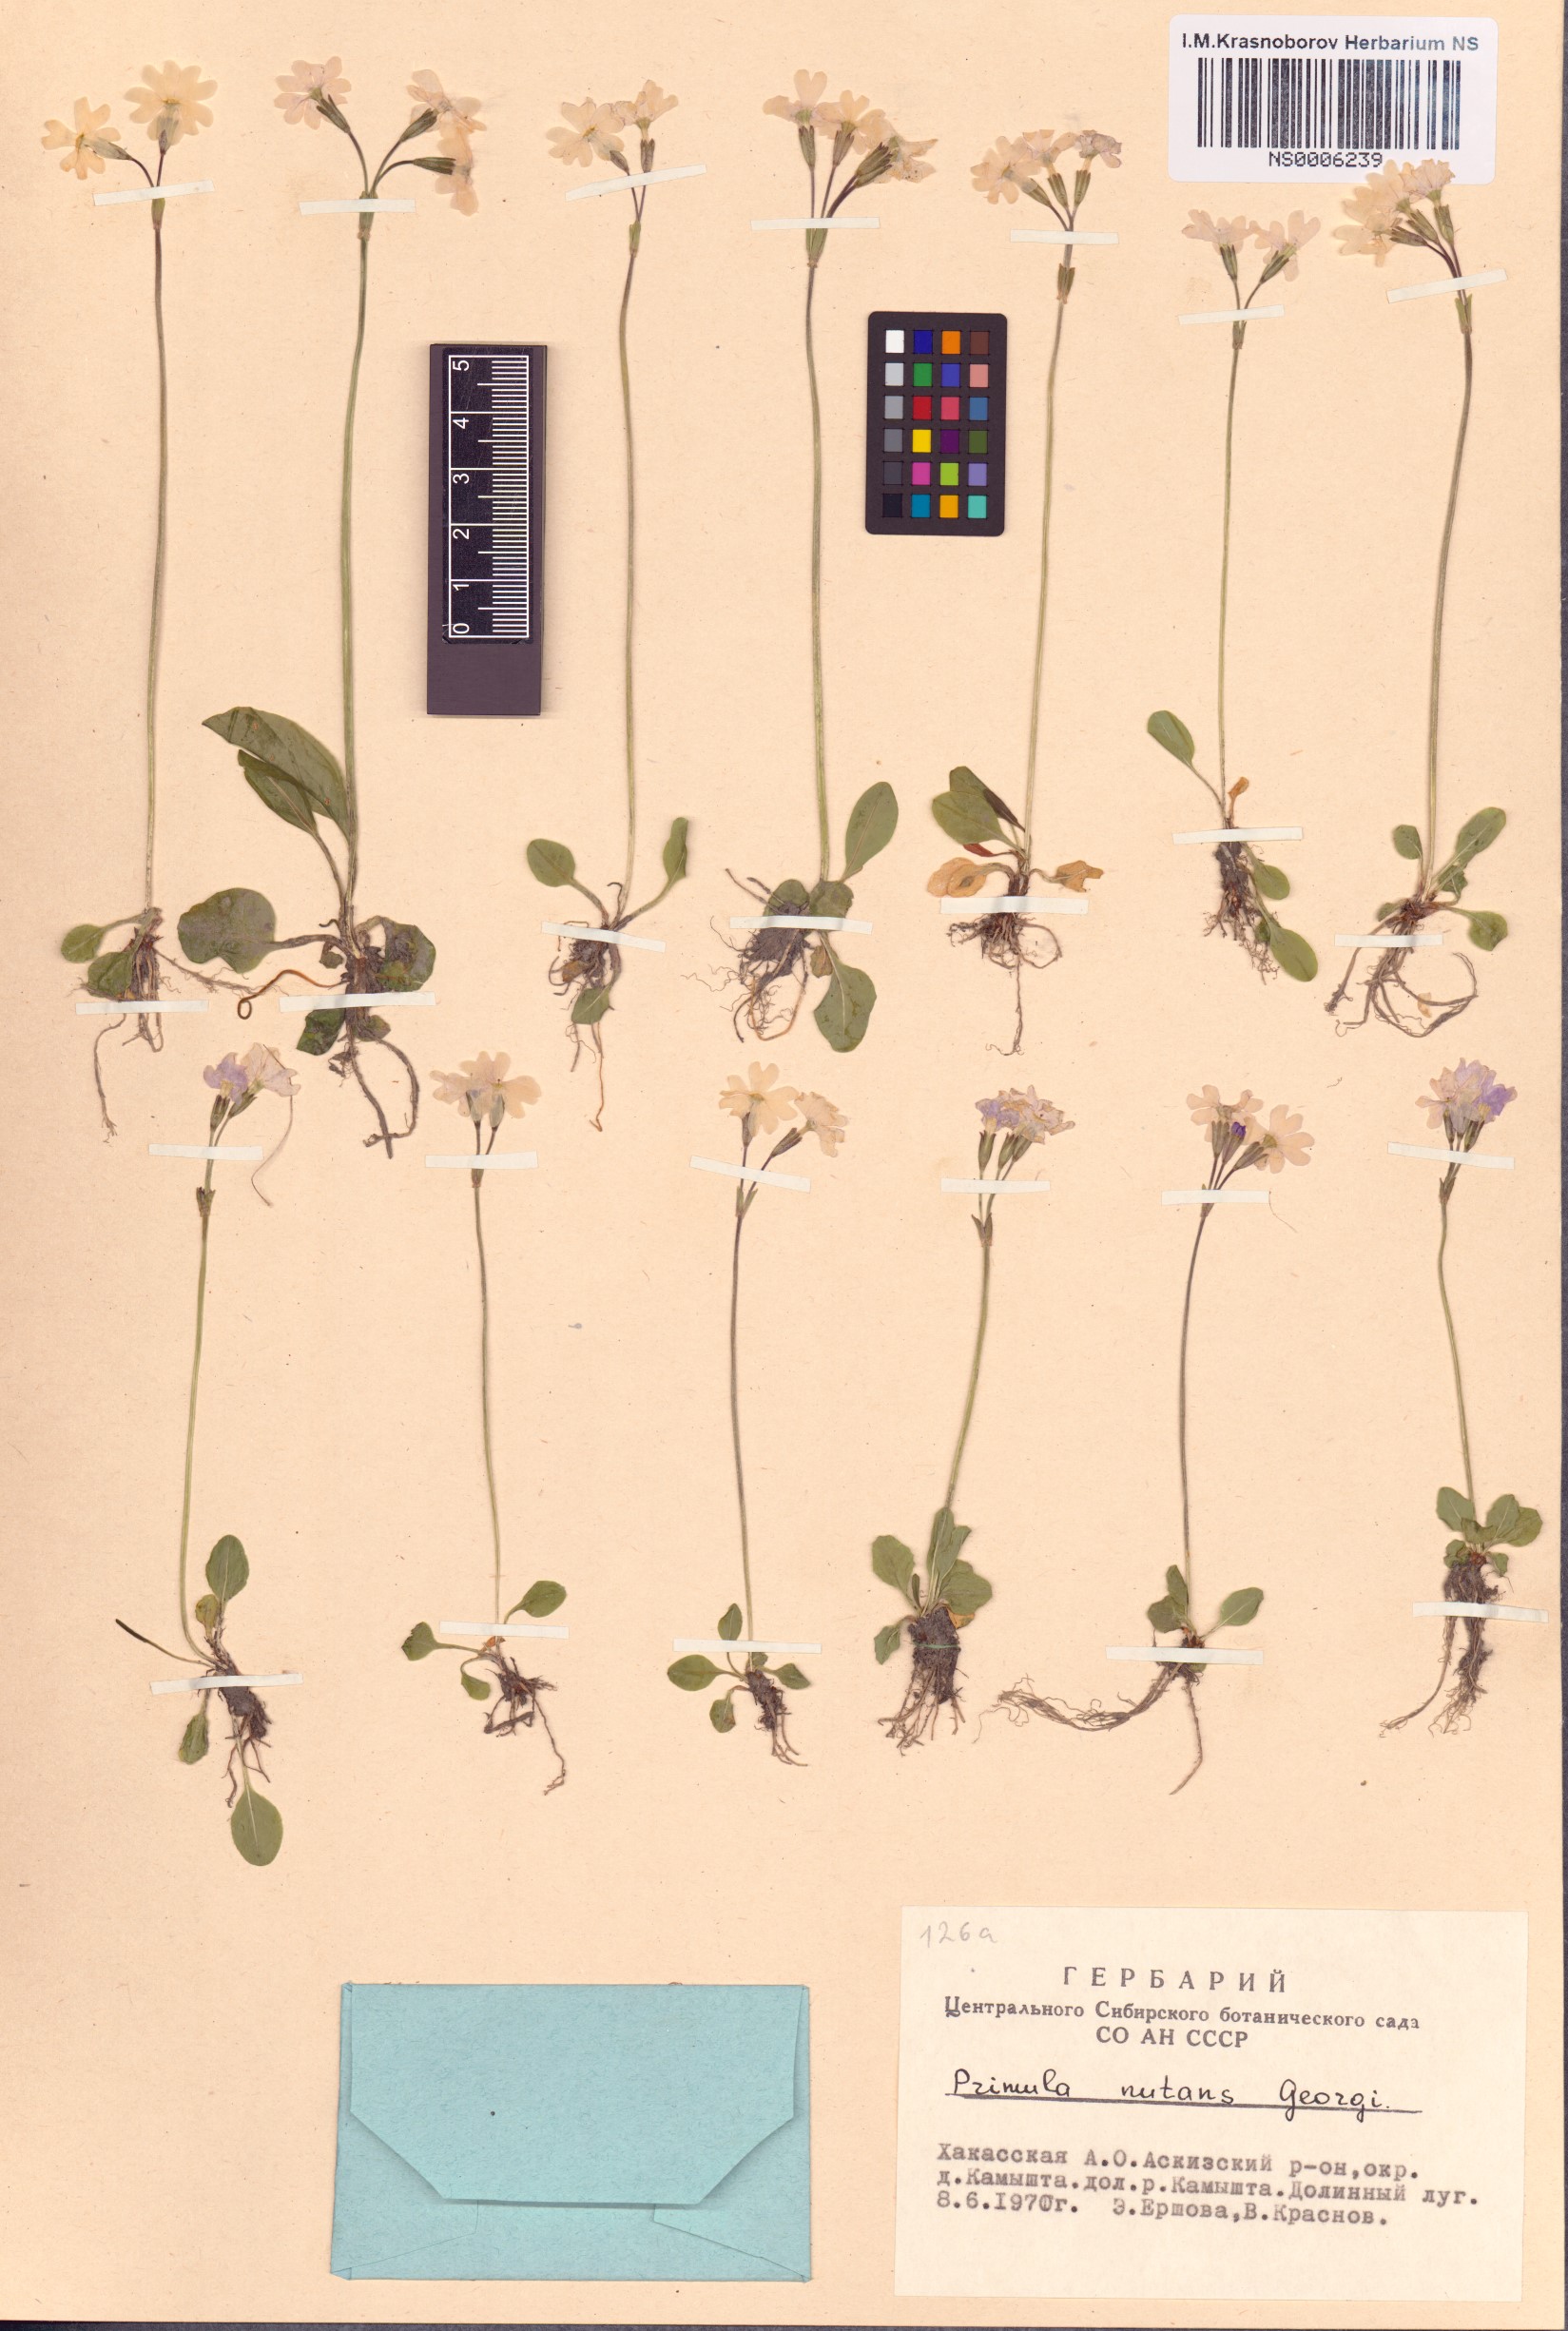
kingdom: Plantae
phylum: Tracheophyta
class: Magnoliopsida
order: Ericales
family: Primulaceae
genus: Primula
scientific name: Primula nutans
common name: Siberian primrose
